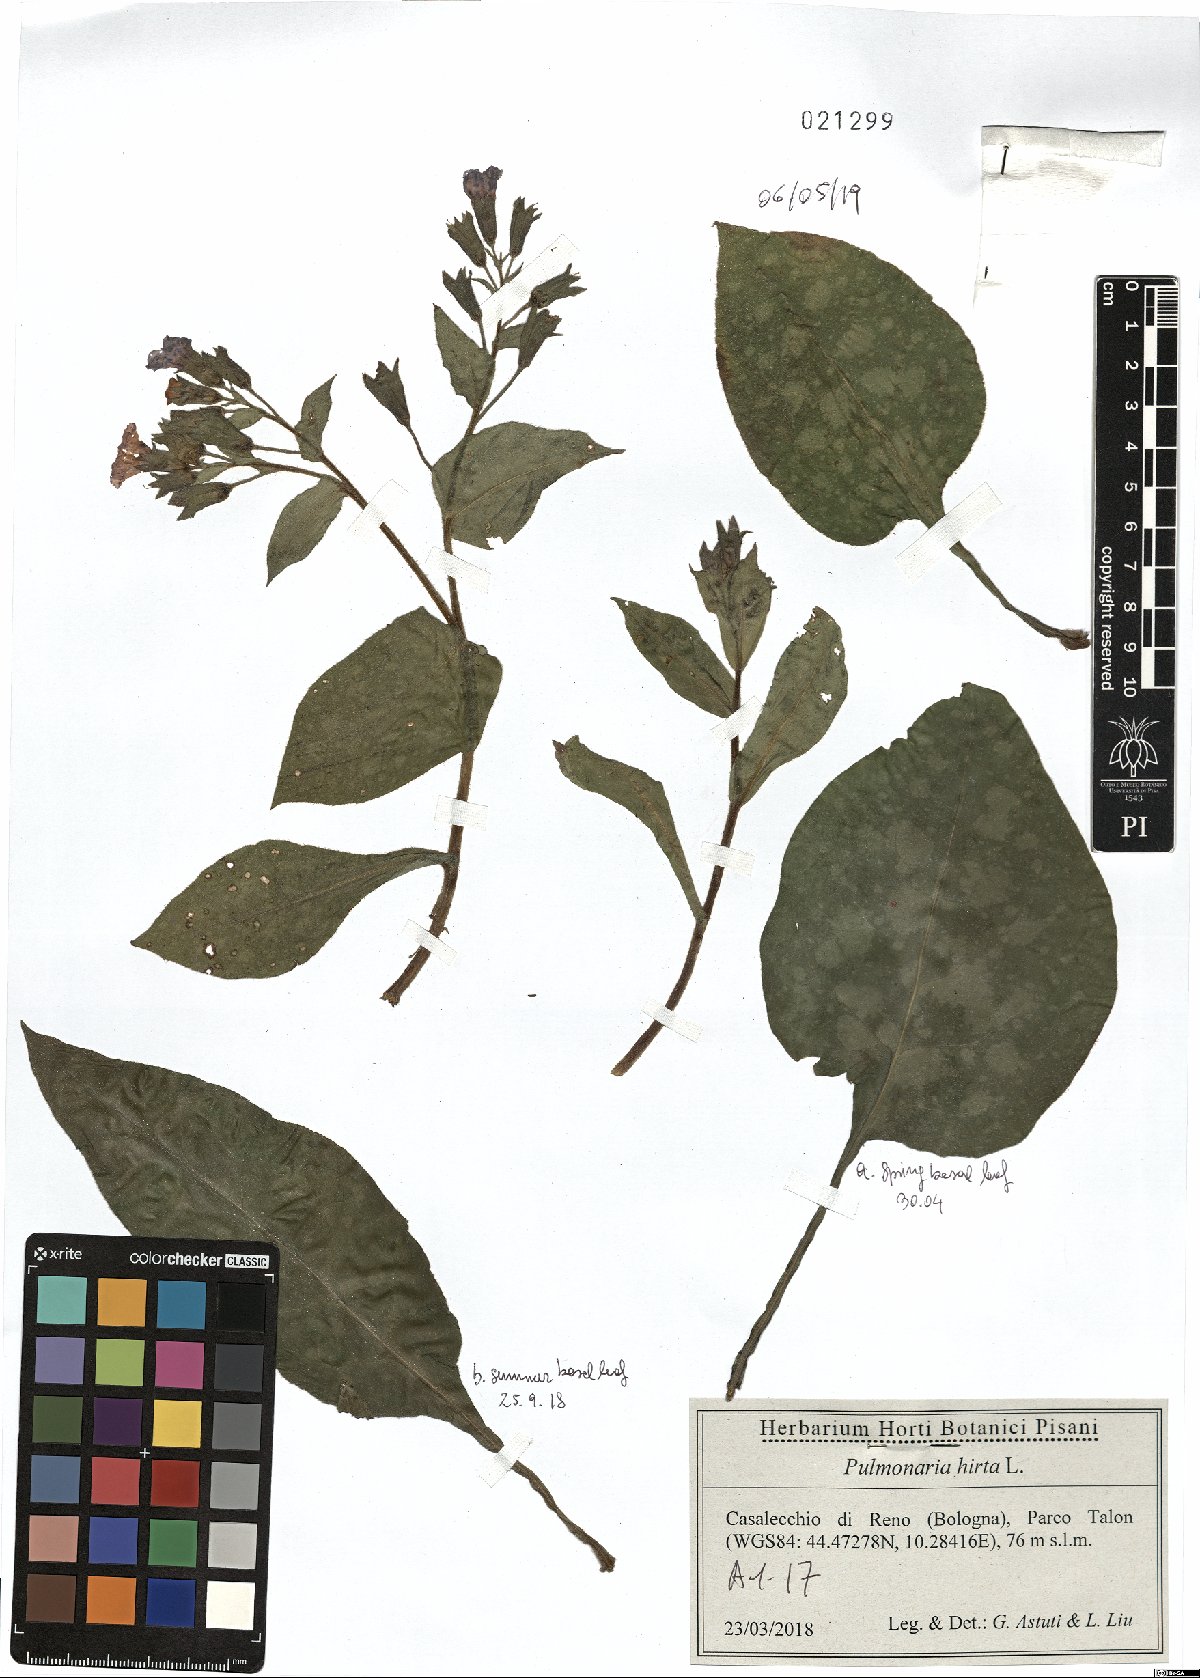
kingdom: Plantae
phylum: Tracheophyta
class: Magnoliopsida
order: Boraginales
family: Boraginaceae
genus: Pulmonaria
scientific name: Pulmonaria hirta
